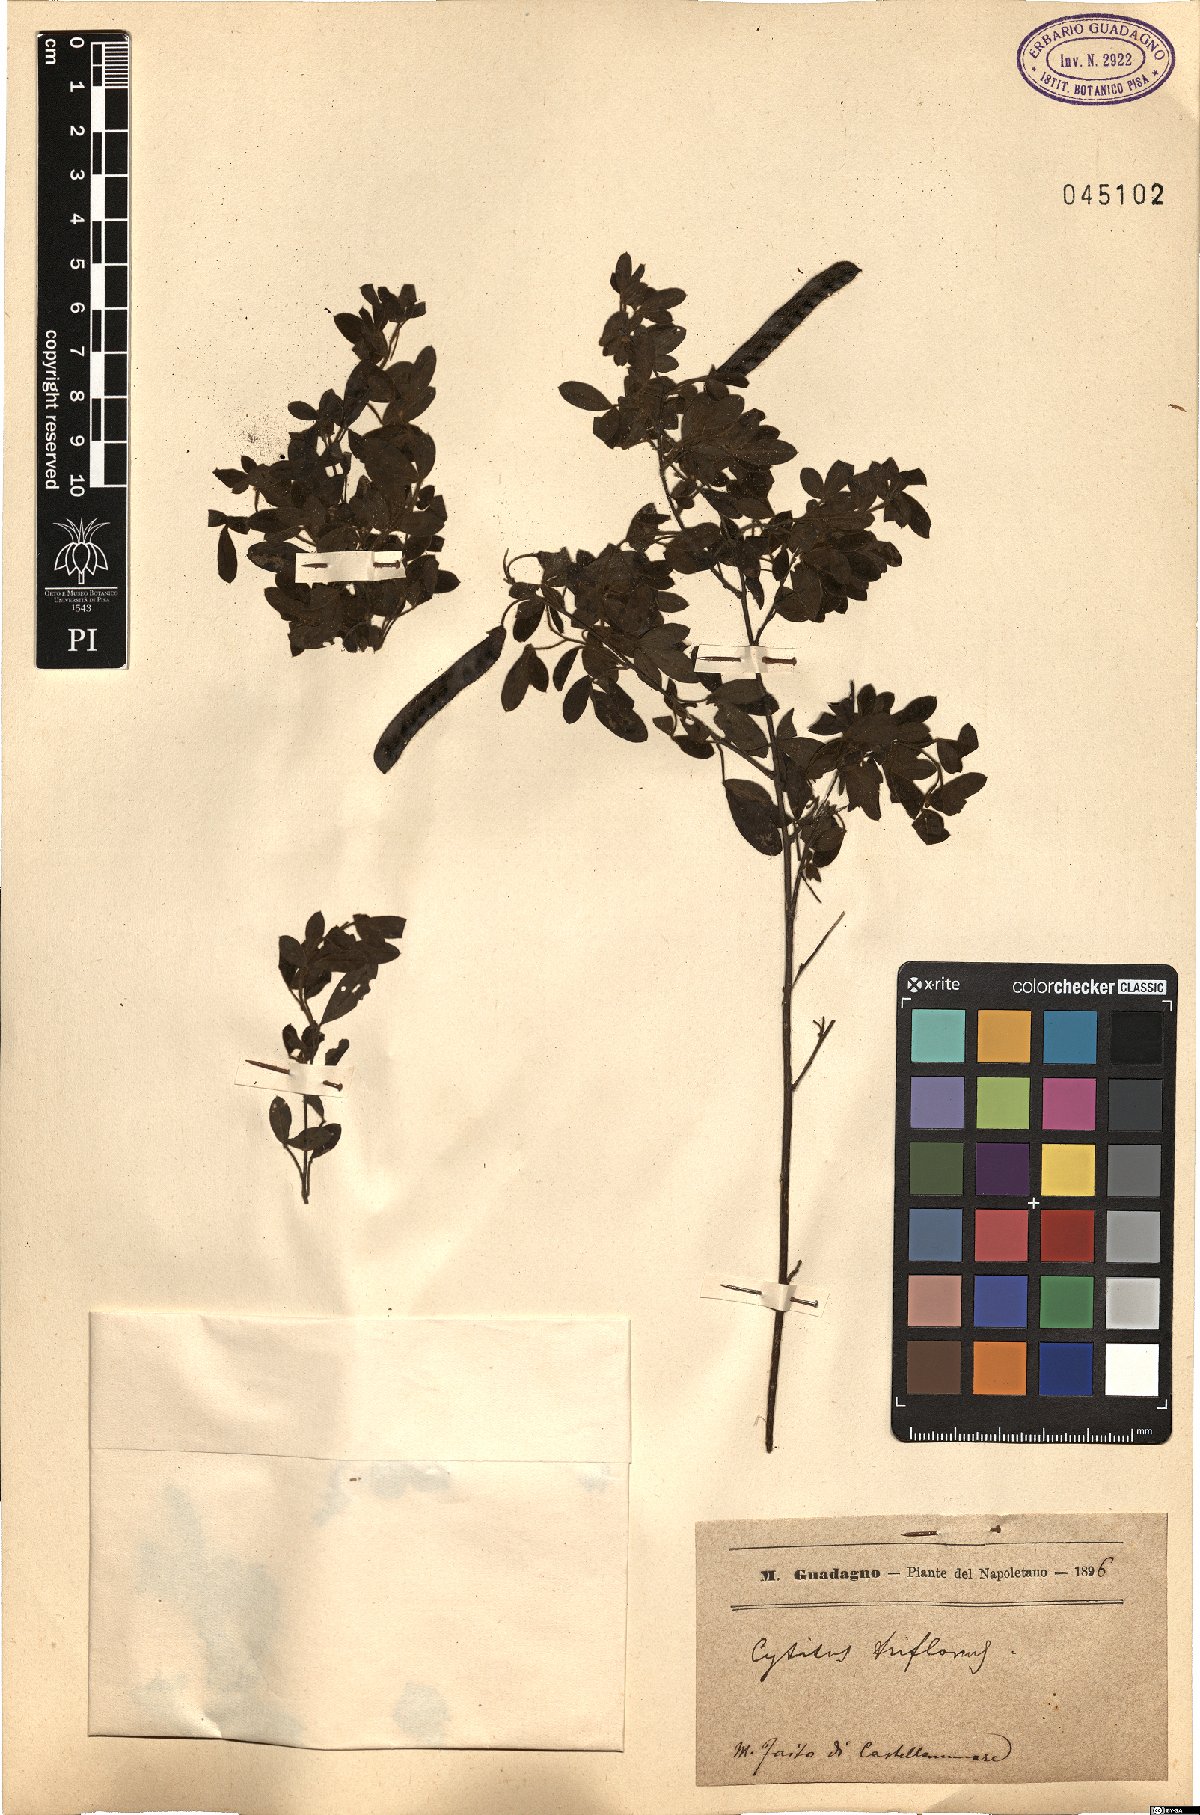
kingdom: Plantae
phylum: Tracheophyta
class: Magnoliopsida
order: Fabales
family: Fabaceae
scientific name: Fabaceae
